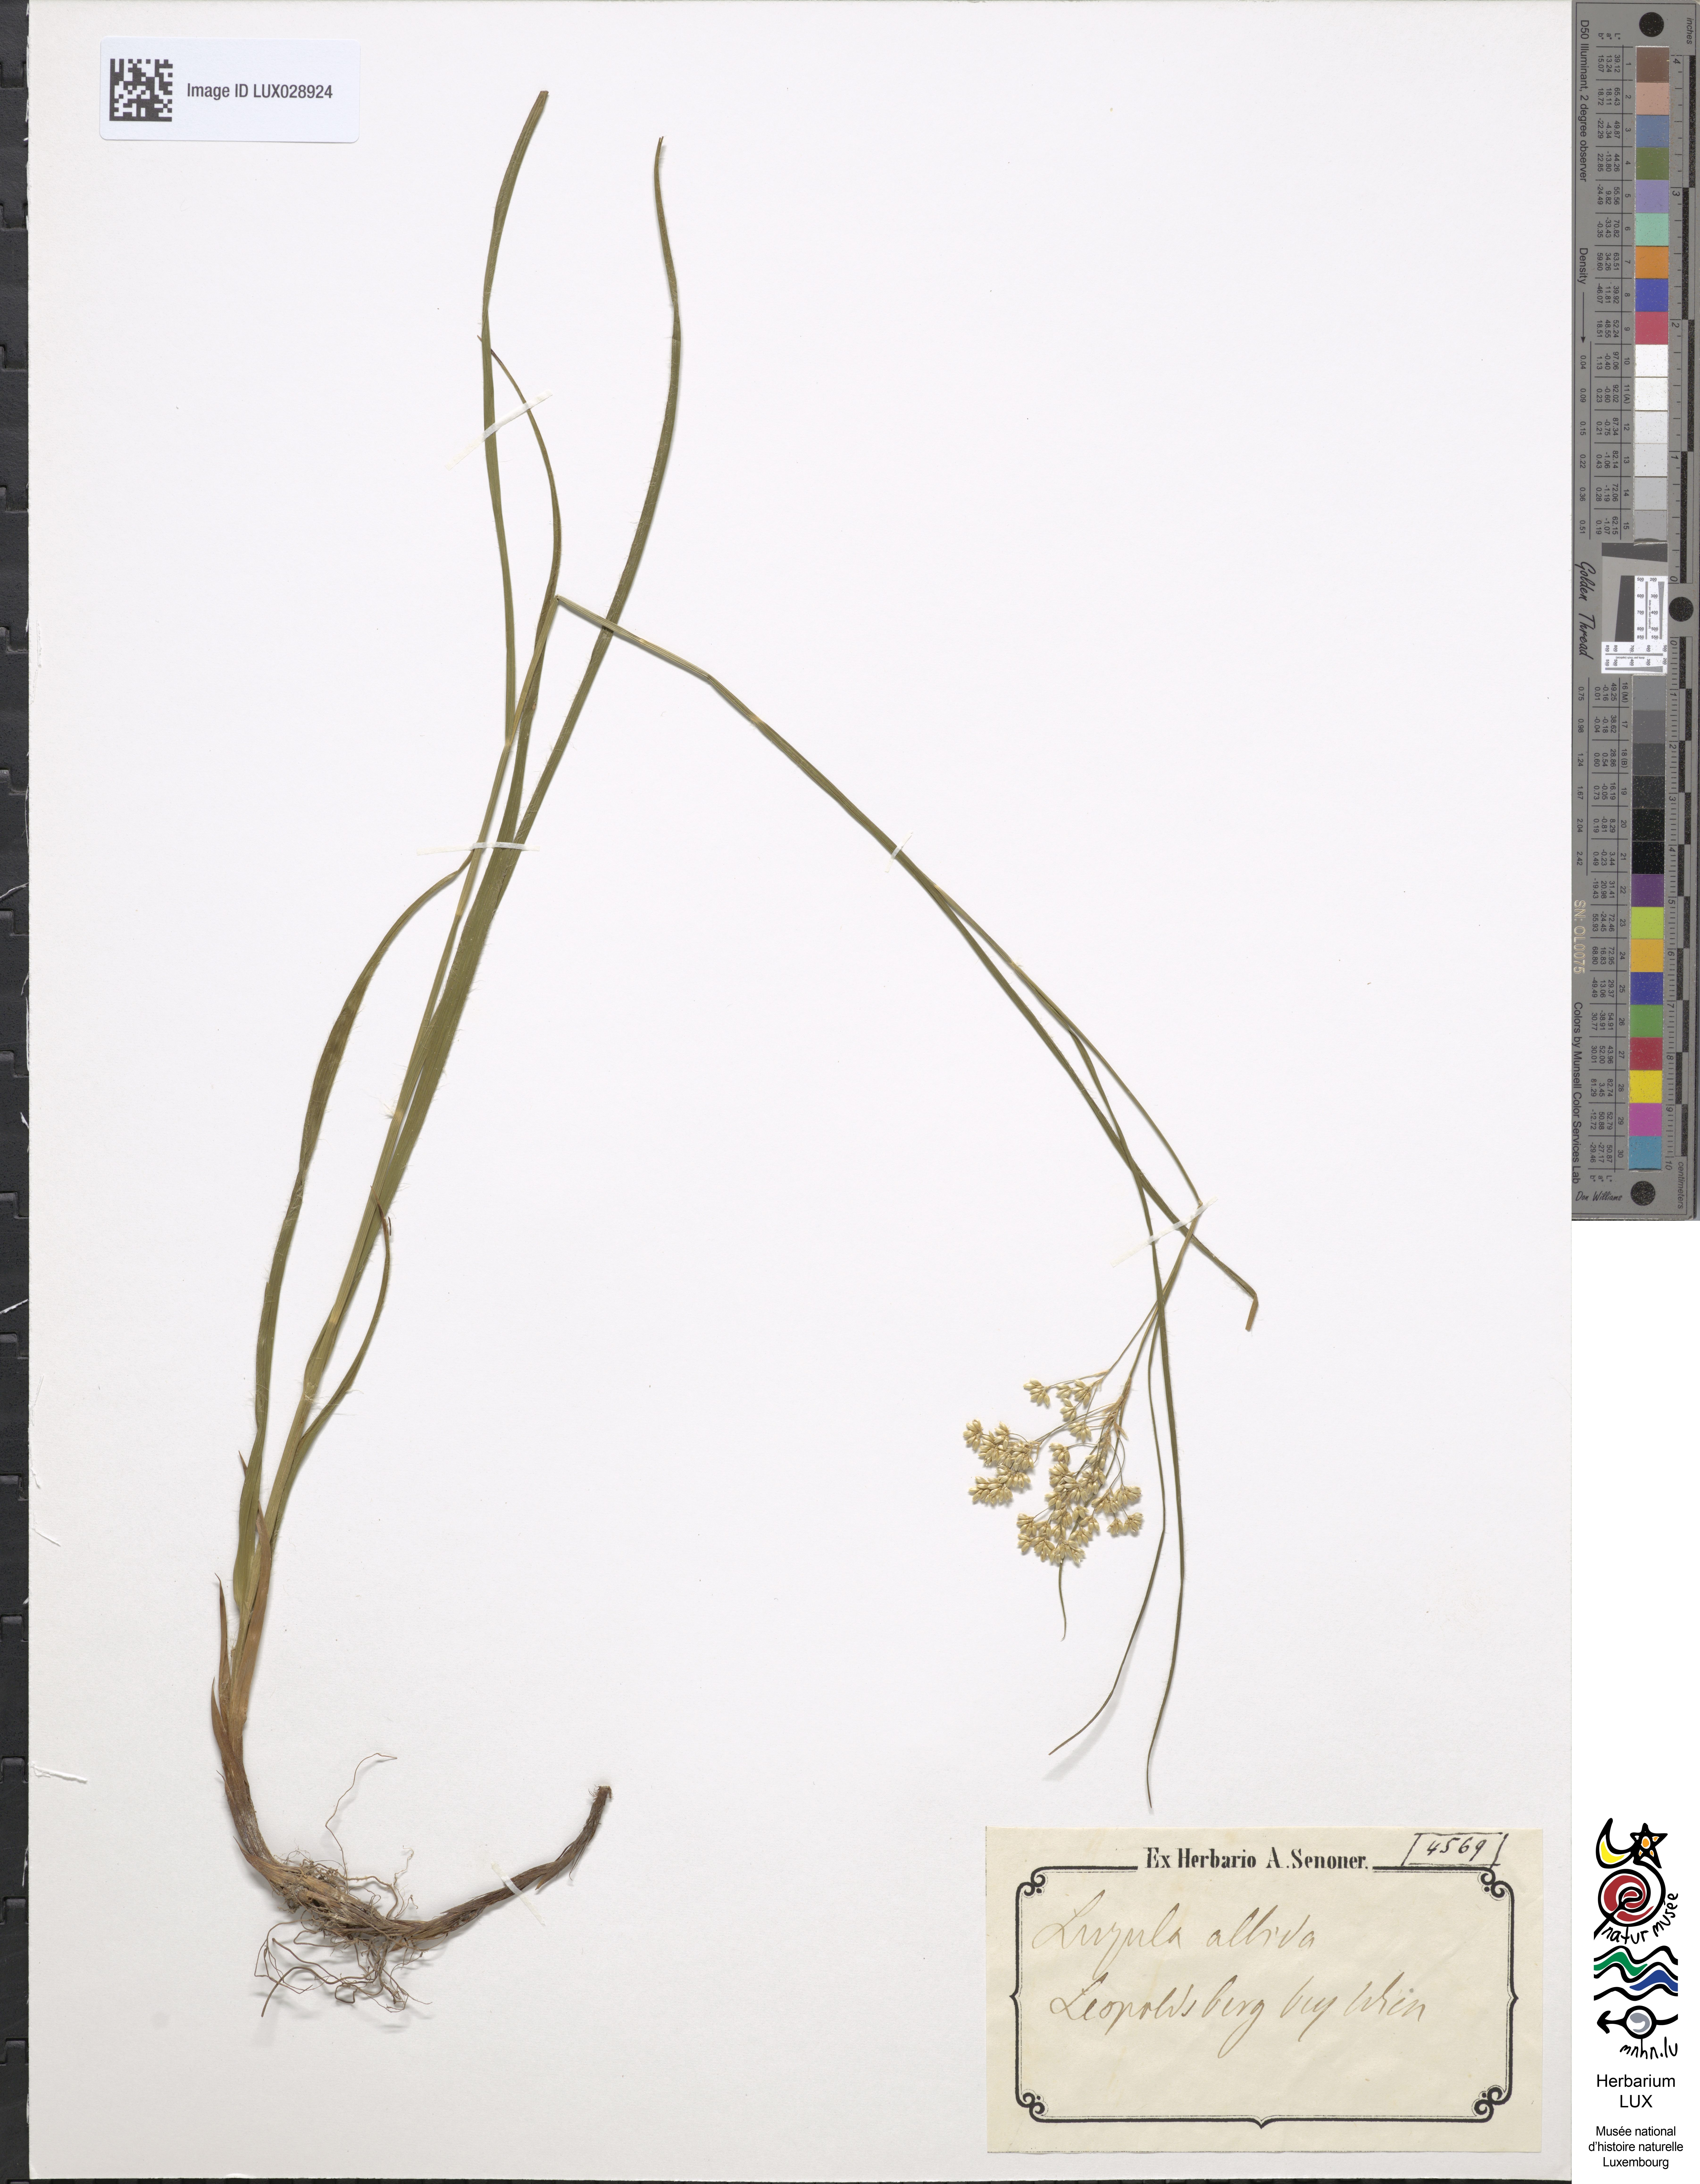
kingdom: Plantae
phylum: Tracheophyta
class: Liliopsida
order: Poales
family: Juncaceae
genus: Luzula
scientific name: Luzula luzuloides
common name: White wood-rush
